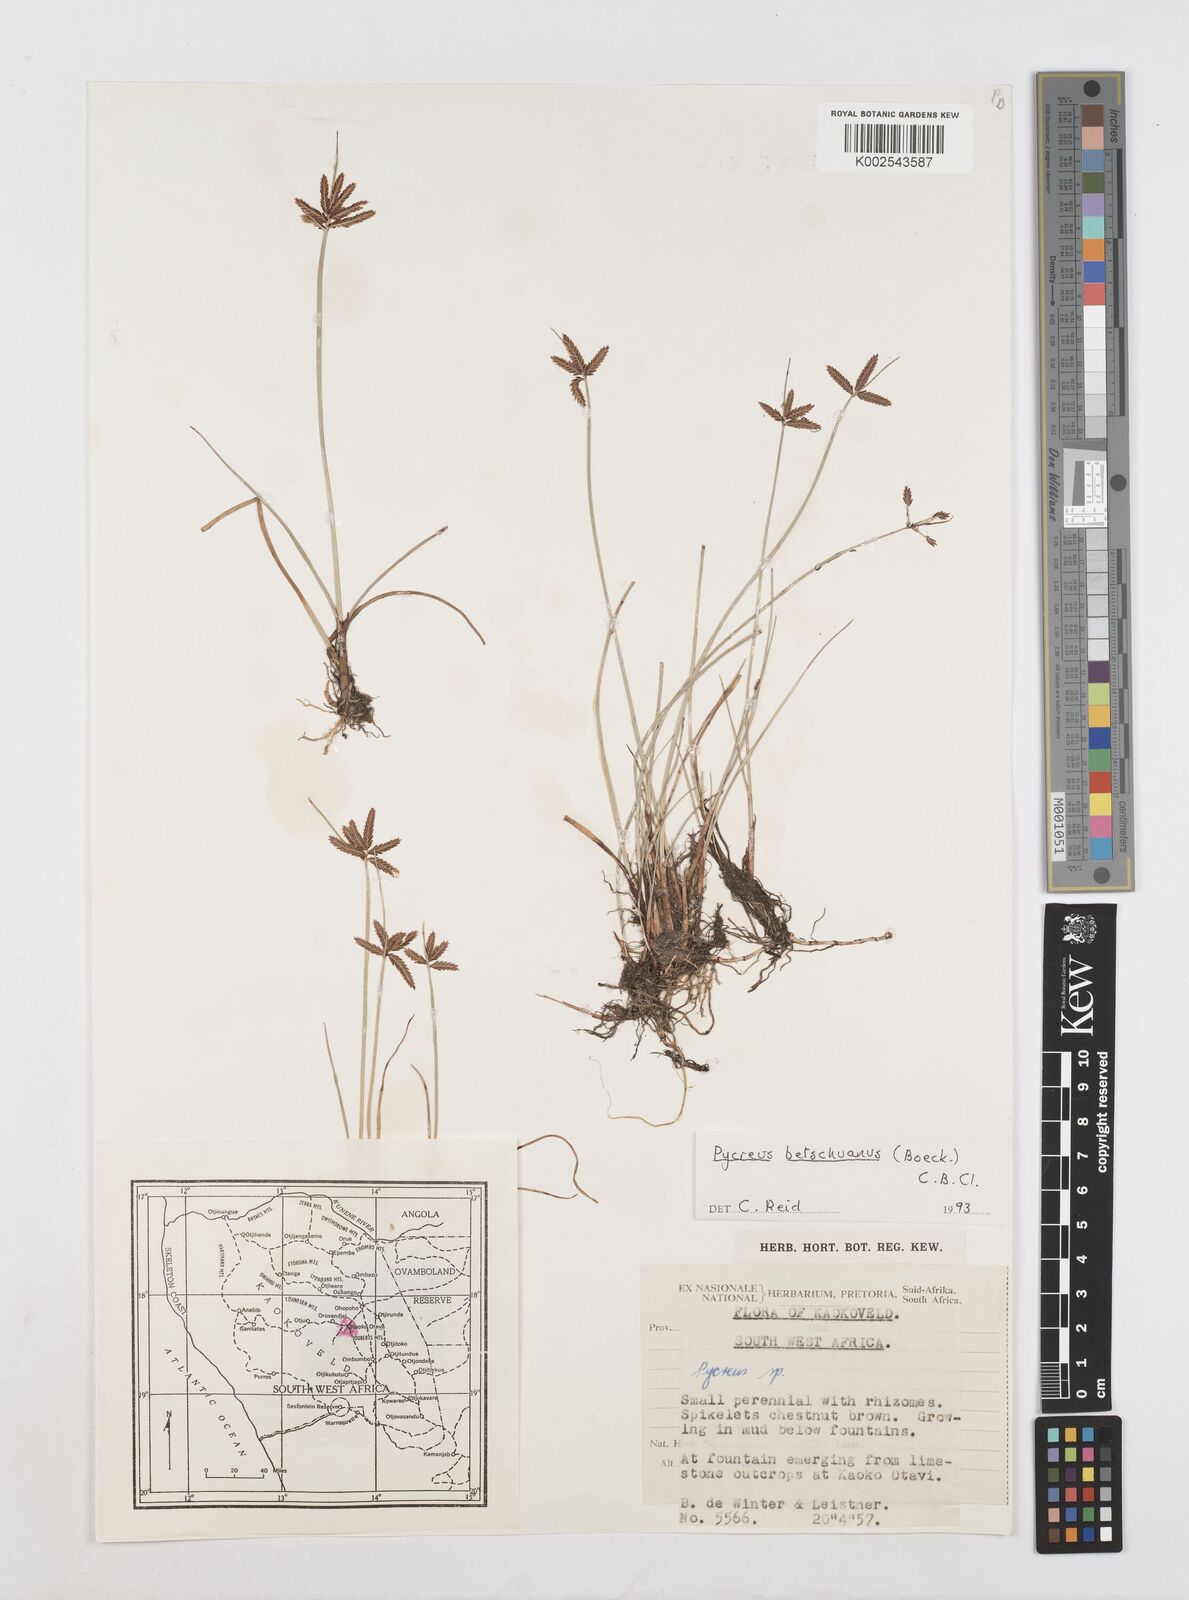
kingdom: Plantae
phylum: Tracheophyta
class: Liliopsida
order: Poales
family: Cyperaceae
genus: Cyperus
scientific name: Cyperus aethiops
